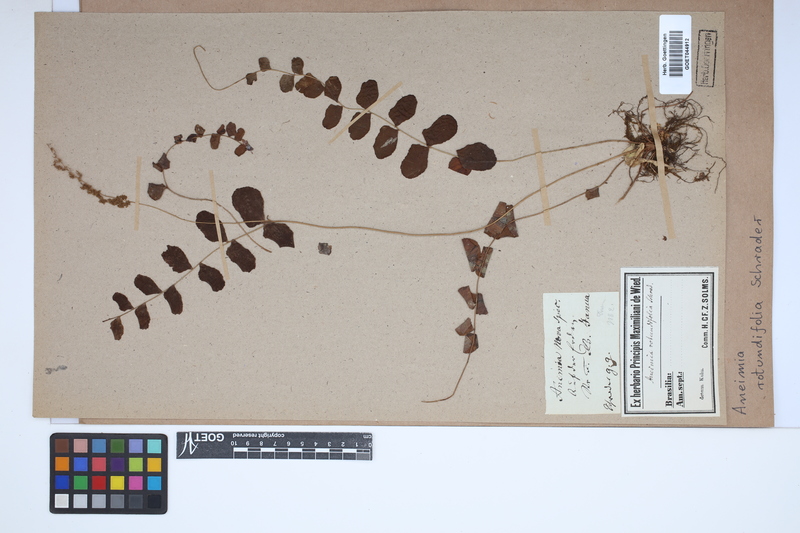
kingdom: Plantae
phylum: Tracheophyta
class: Polypodiopsida
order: Schizaeales
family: Anemiaceae
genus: Anemia
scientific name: Anemia rotundifolia
